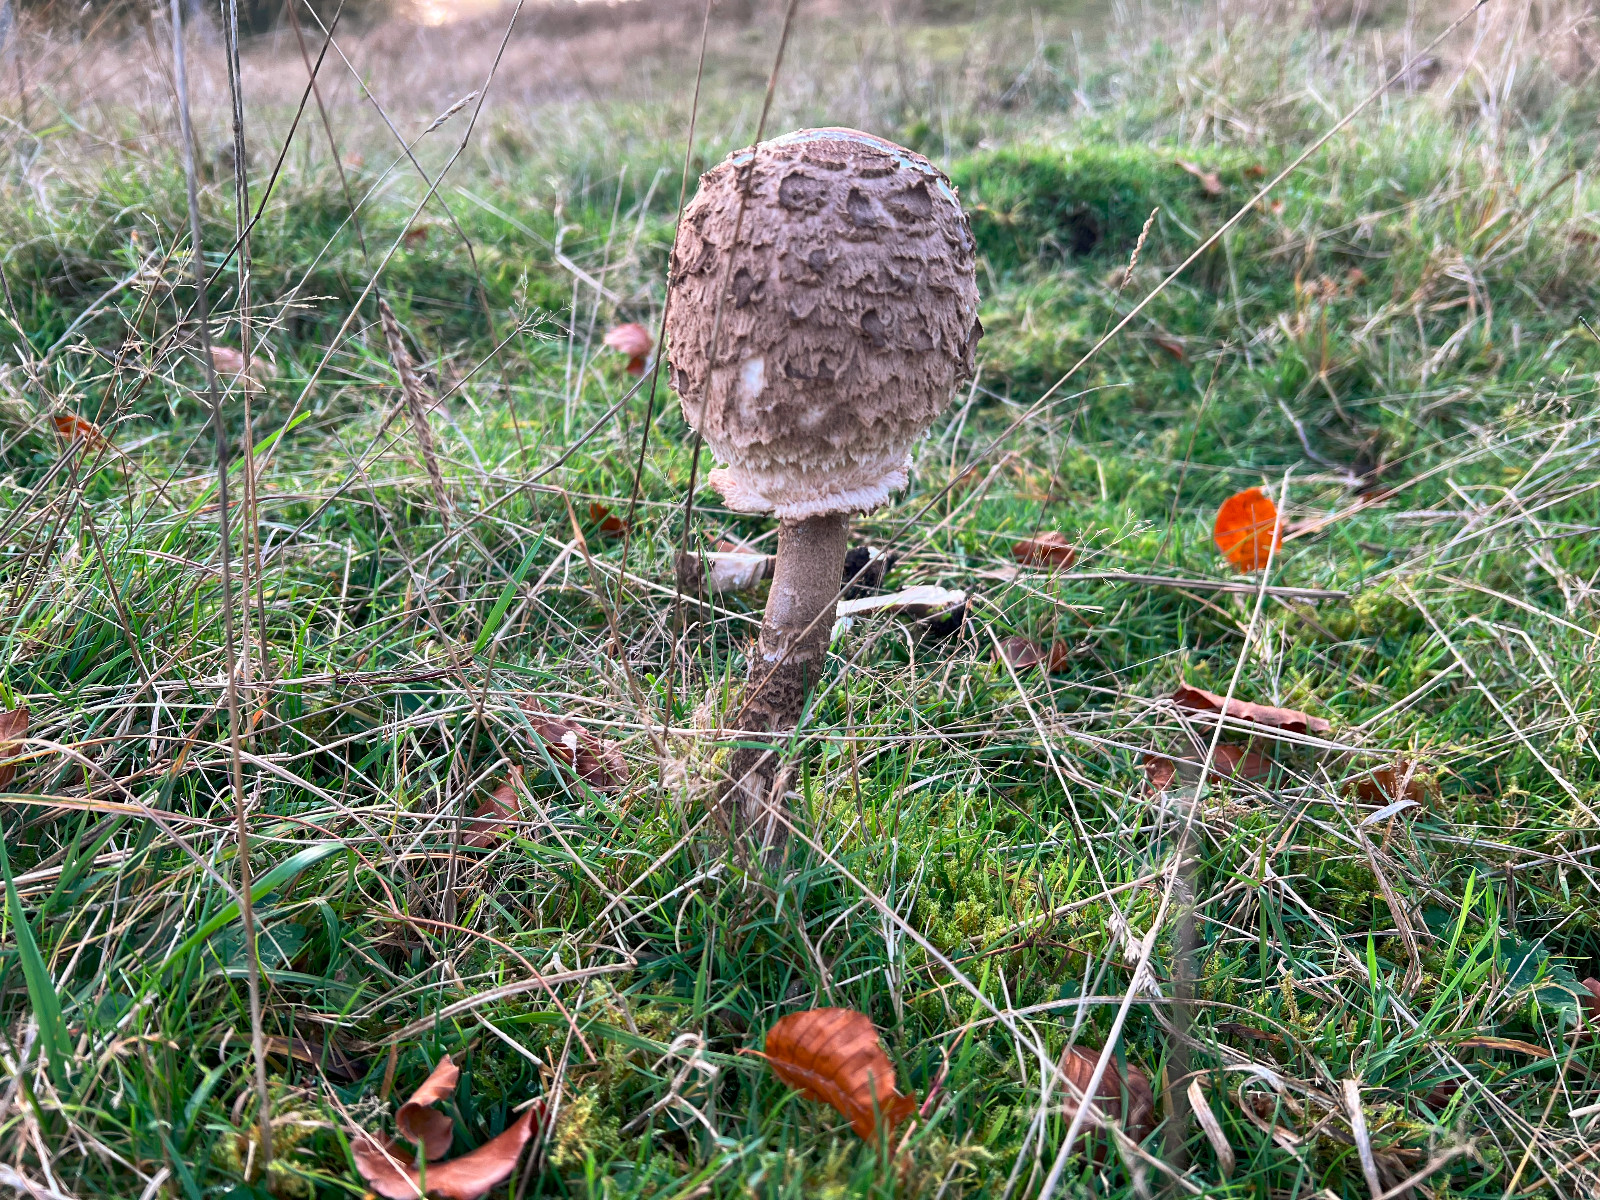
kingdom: Fungi
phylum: Basidiomycota
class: Agaricomycetes
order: Agaricales
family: Agaricaceae
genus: Macrolepiota
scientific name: Macrolepiota procera
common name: stor kæmpeparasolhat
